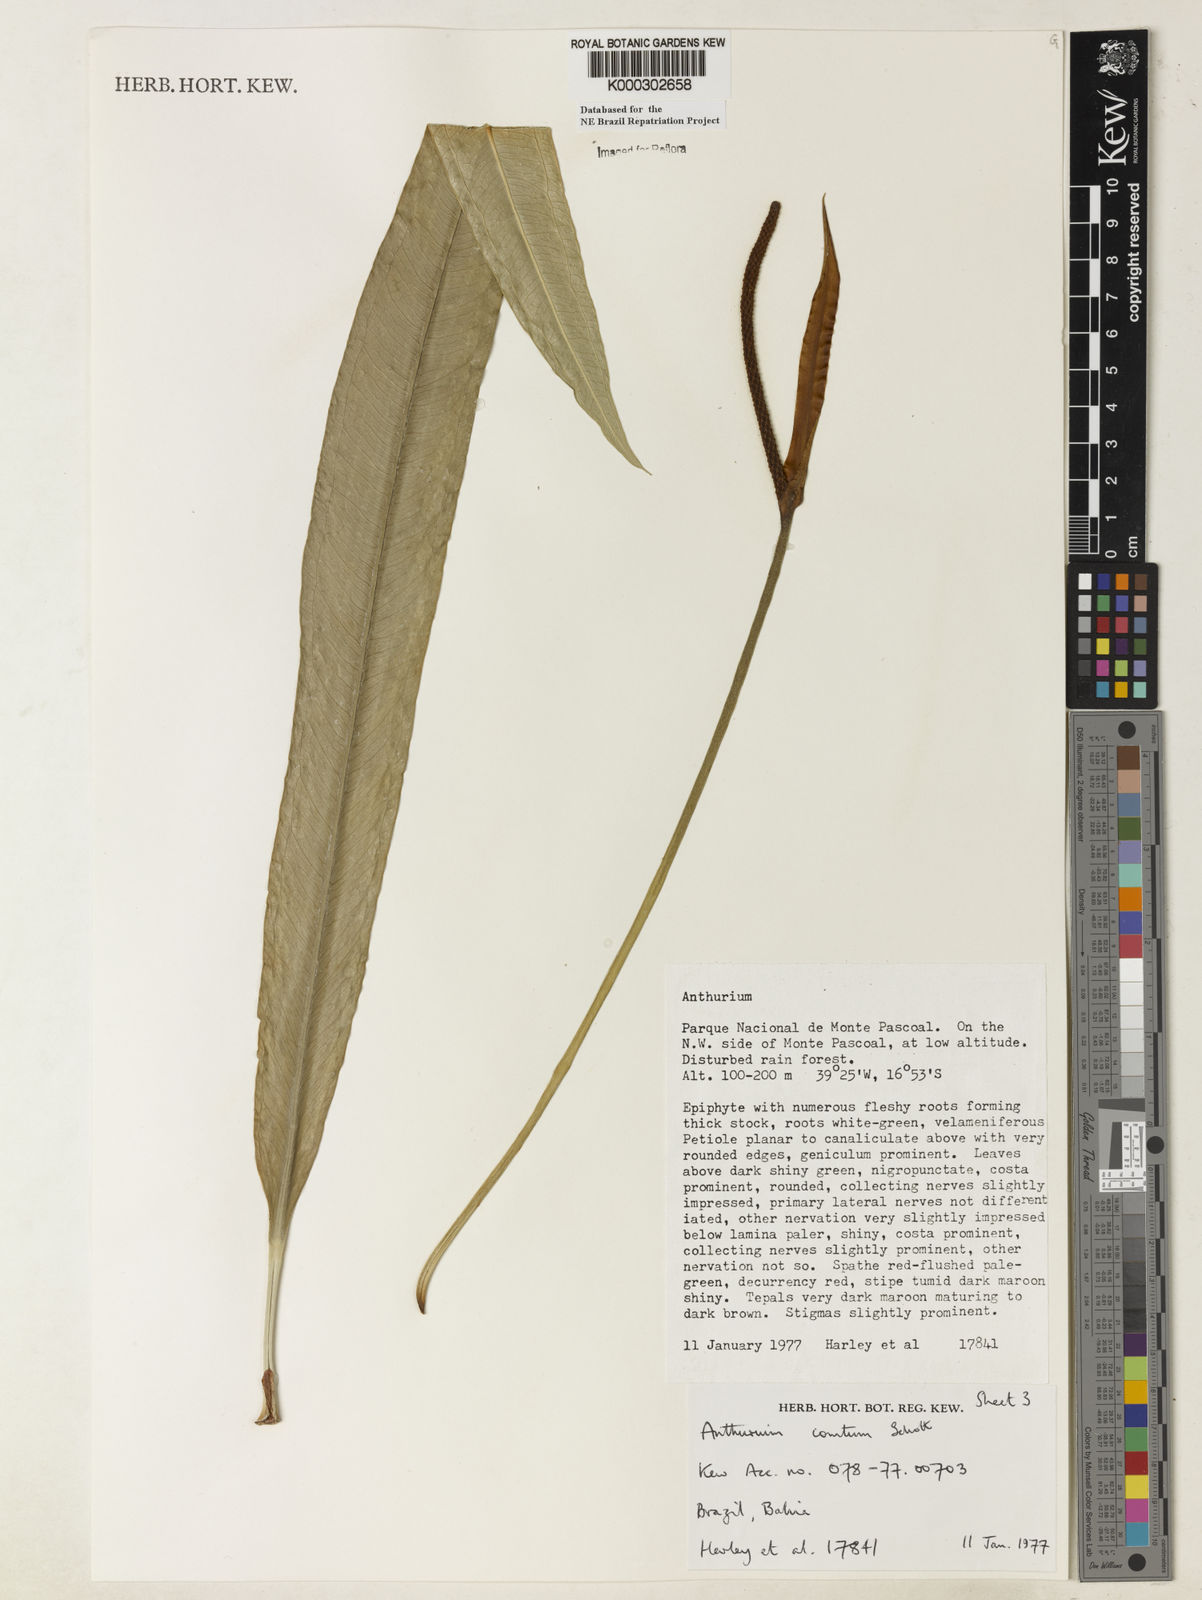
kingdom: Plantae
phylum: Tracheophyta
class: Liliopsida
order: Alismatales
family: Araceae
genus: Anthurium
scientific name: Anthurium comtum
